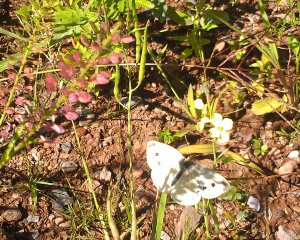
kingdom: Animalia
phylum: Arthropoda
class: Insecta
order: Lepidoptera
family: Pieridae
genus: Pieris
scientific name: Pieris rapae
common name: Cabbage White
